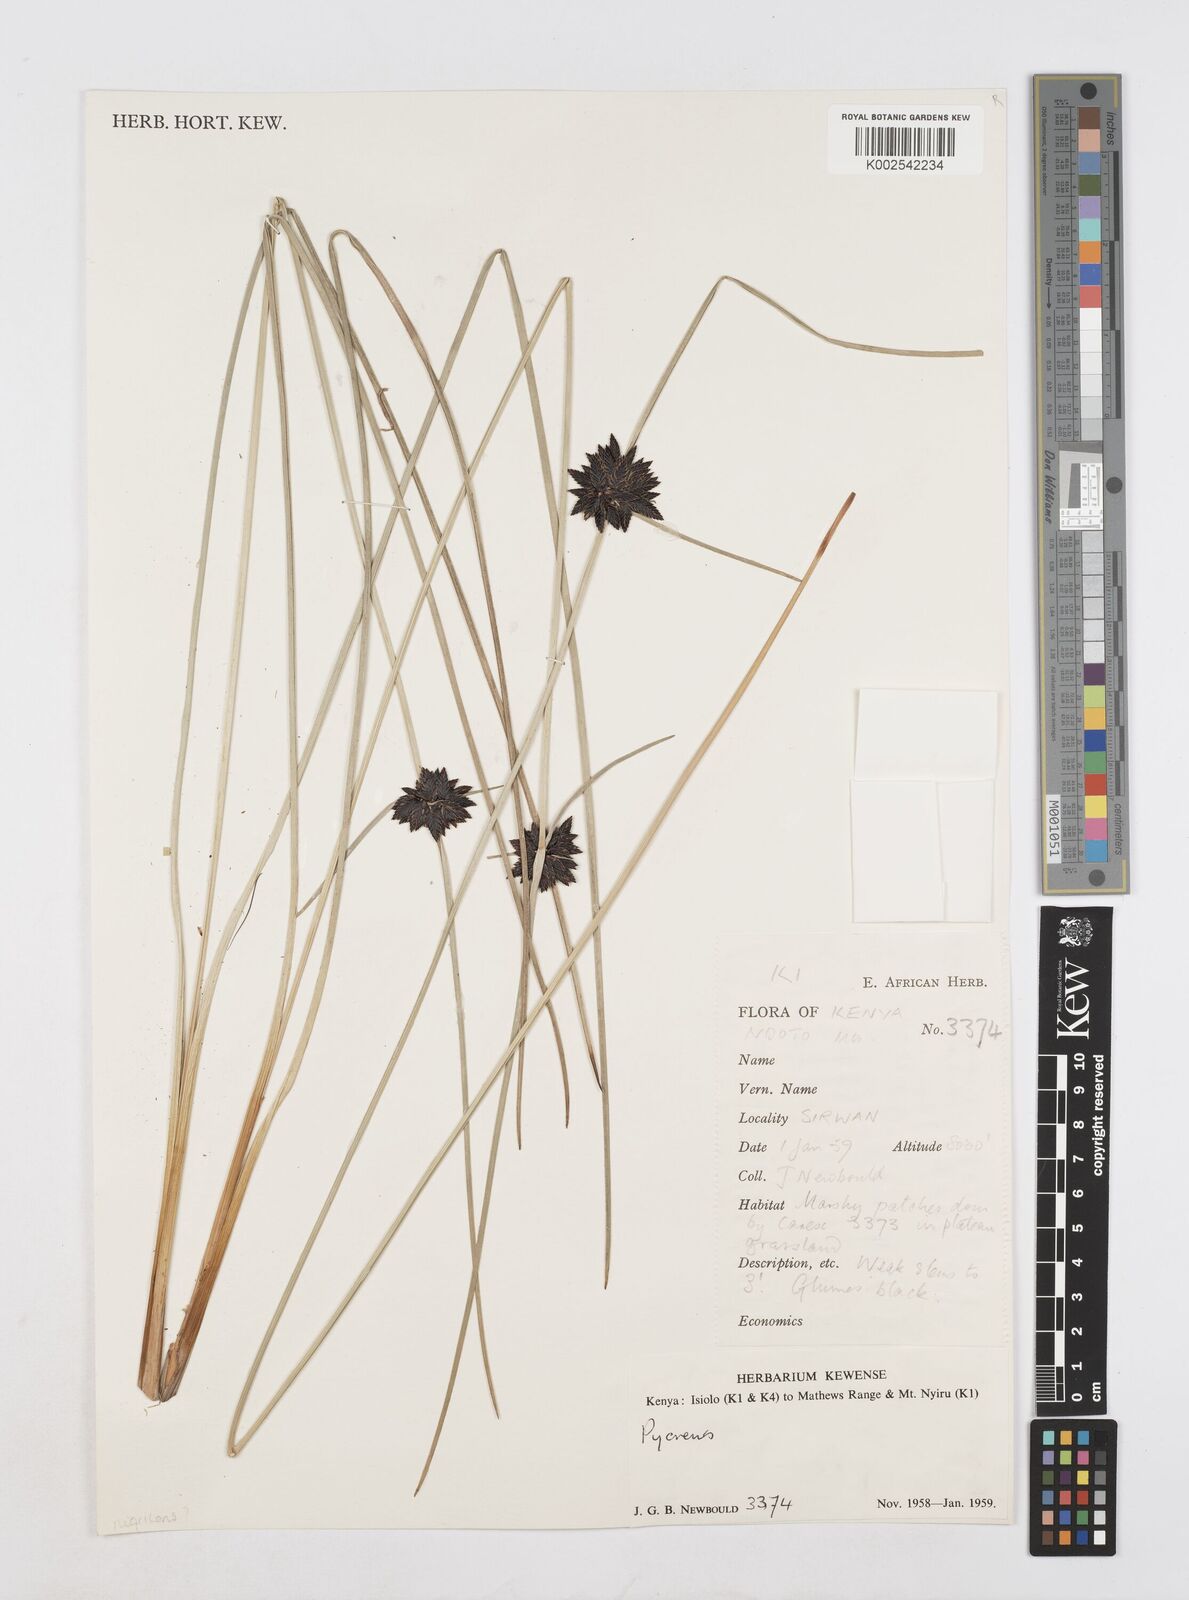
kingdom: Plantae
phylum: Tracheophyta
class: Liliopsida
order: Poales
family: Cyperaceae
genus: Cyperus
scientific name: Cyperus
